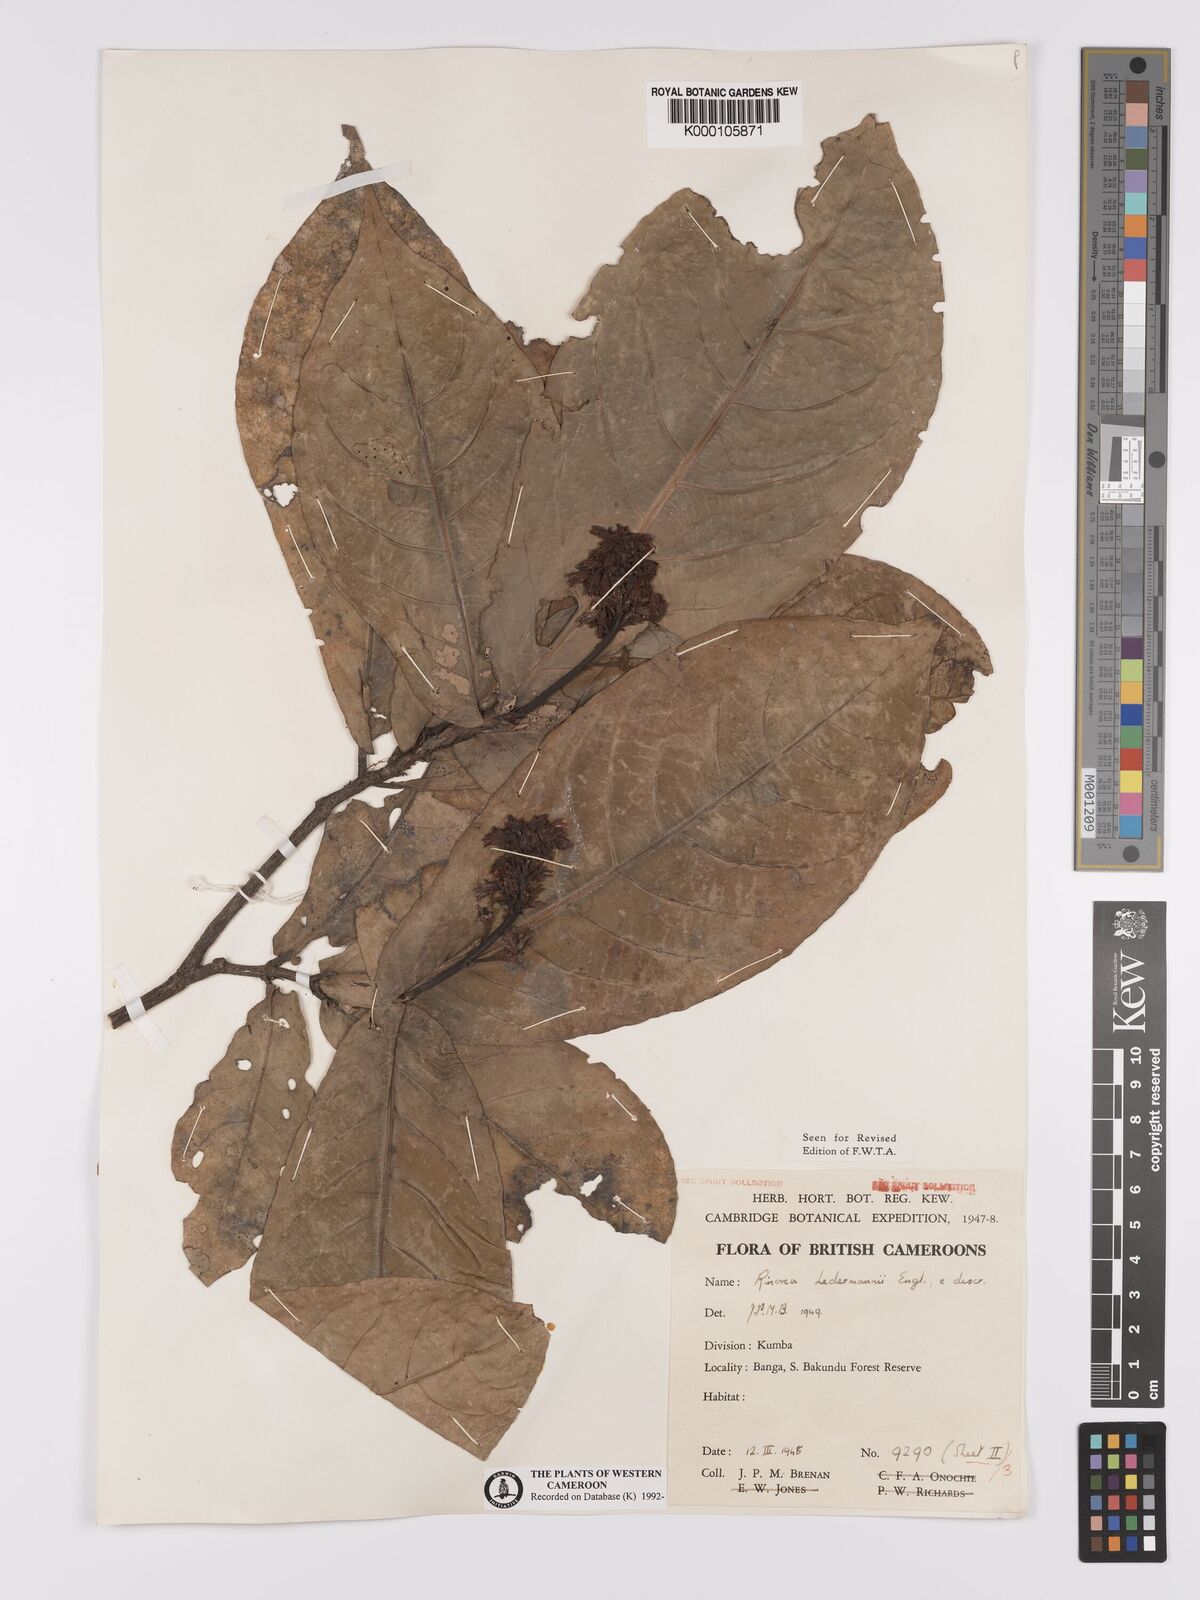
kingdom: Plantae
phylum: Tracheophyta
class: Magnoliopsida
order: Malpighiales
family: Violaceae
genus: Rinorea
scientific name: Rinorea ledermannii
